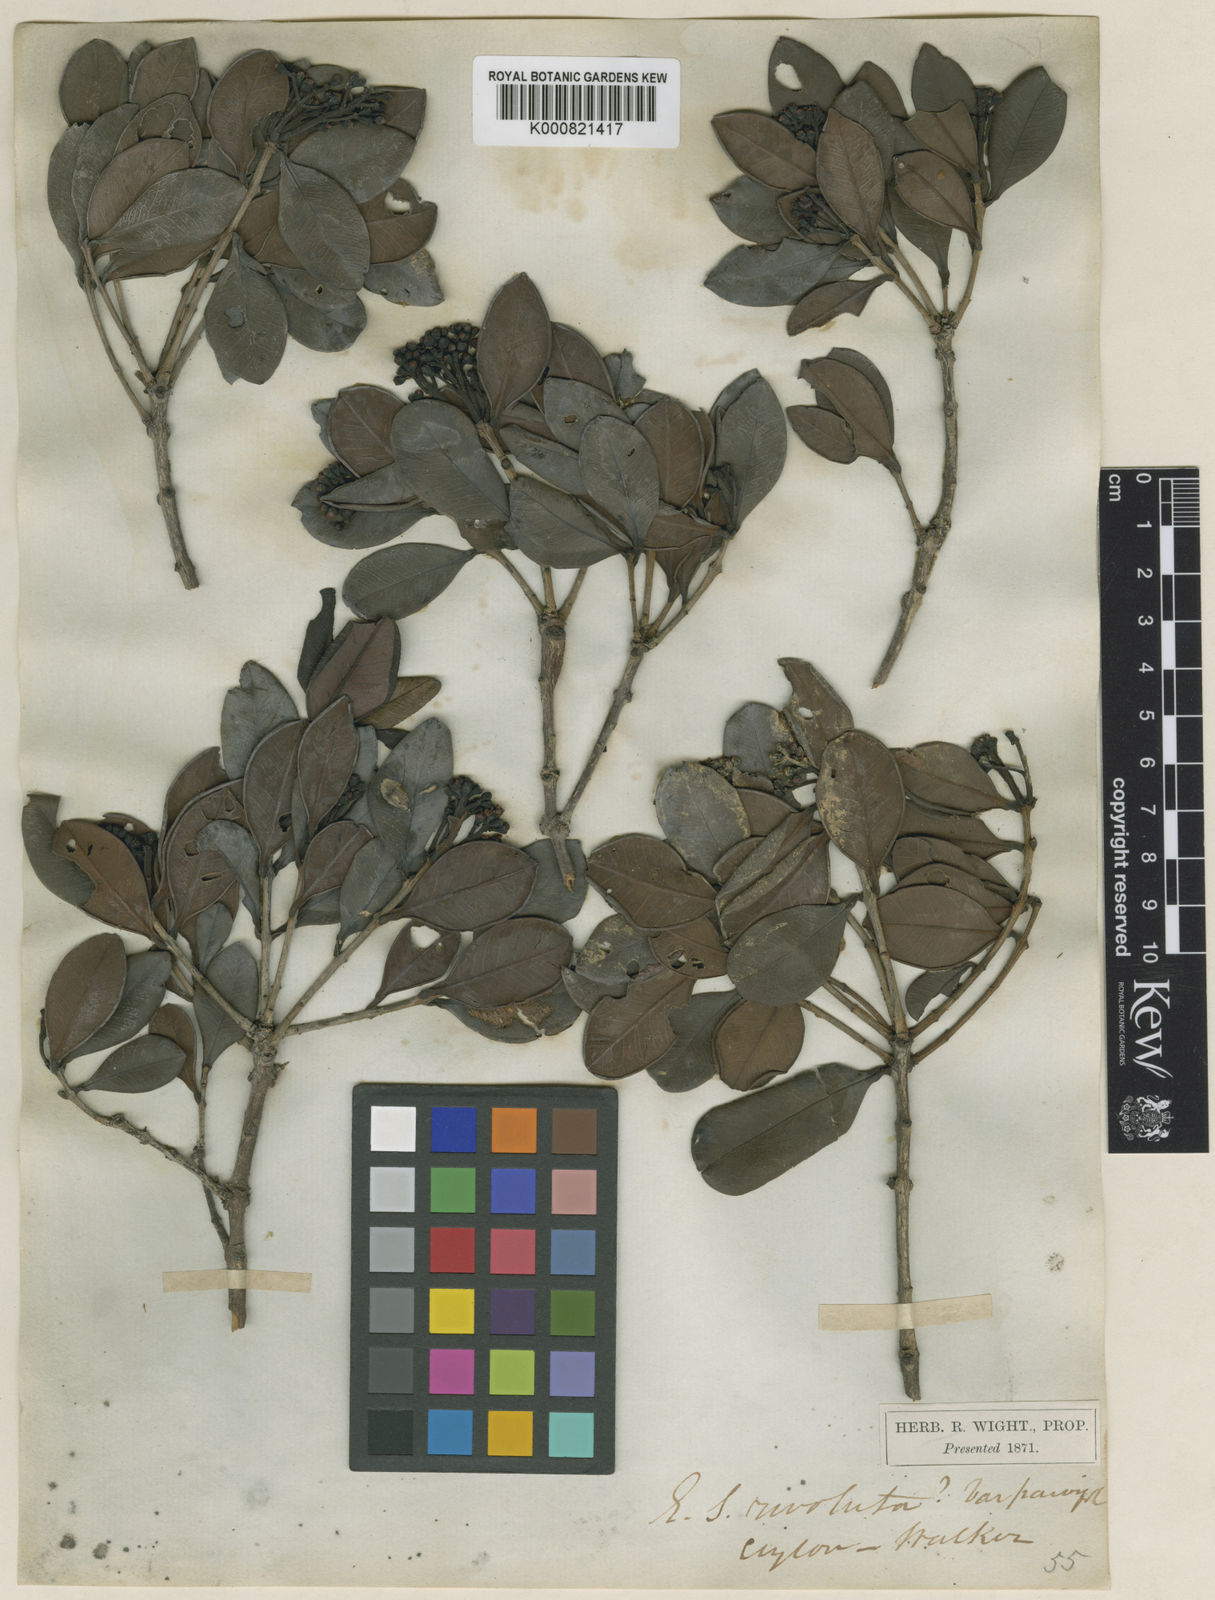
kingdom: Plantae
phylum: Tracheophyta
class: Magnoliopsida
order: Myrtales
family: Myrtaceae
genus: Syzygium
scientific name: Syzygium revolutum
